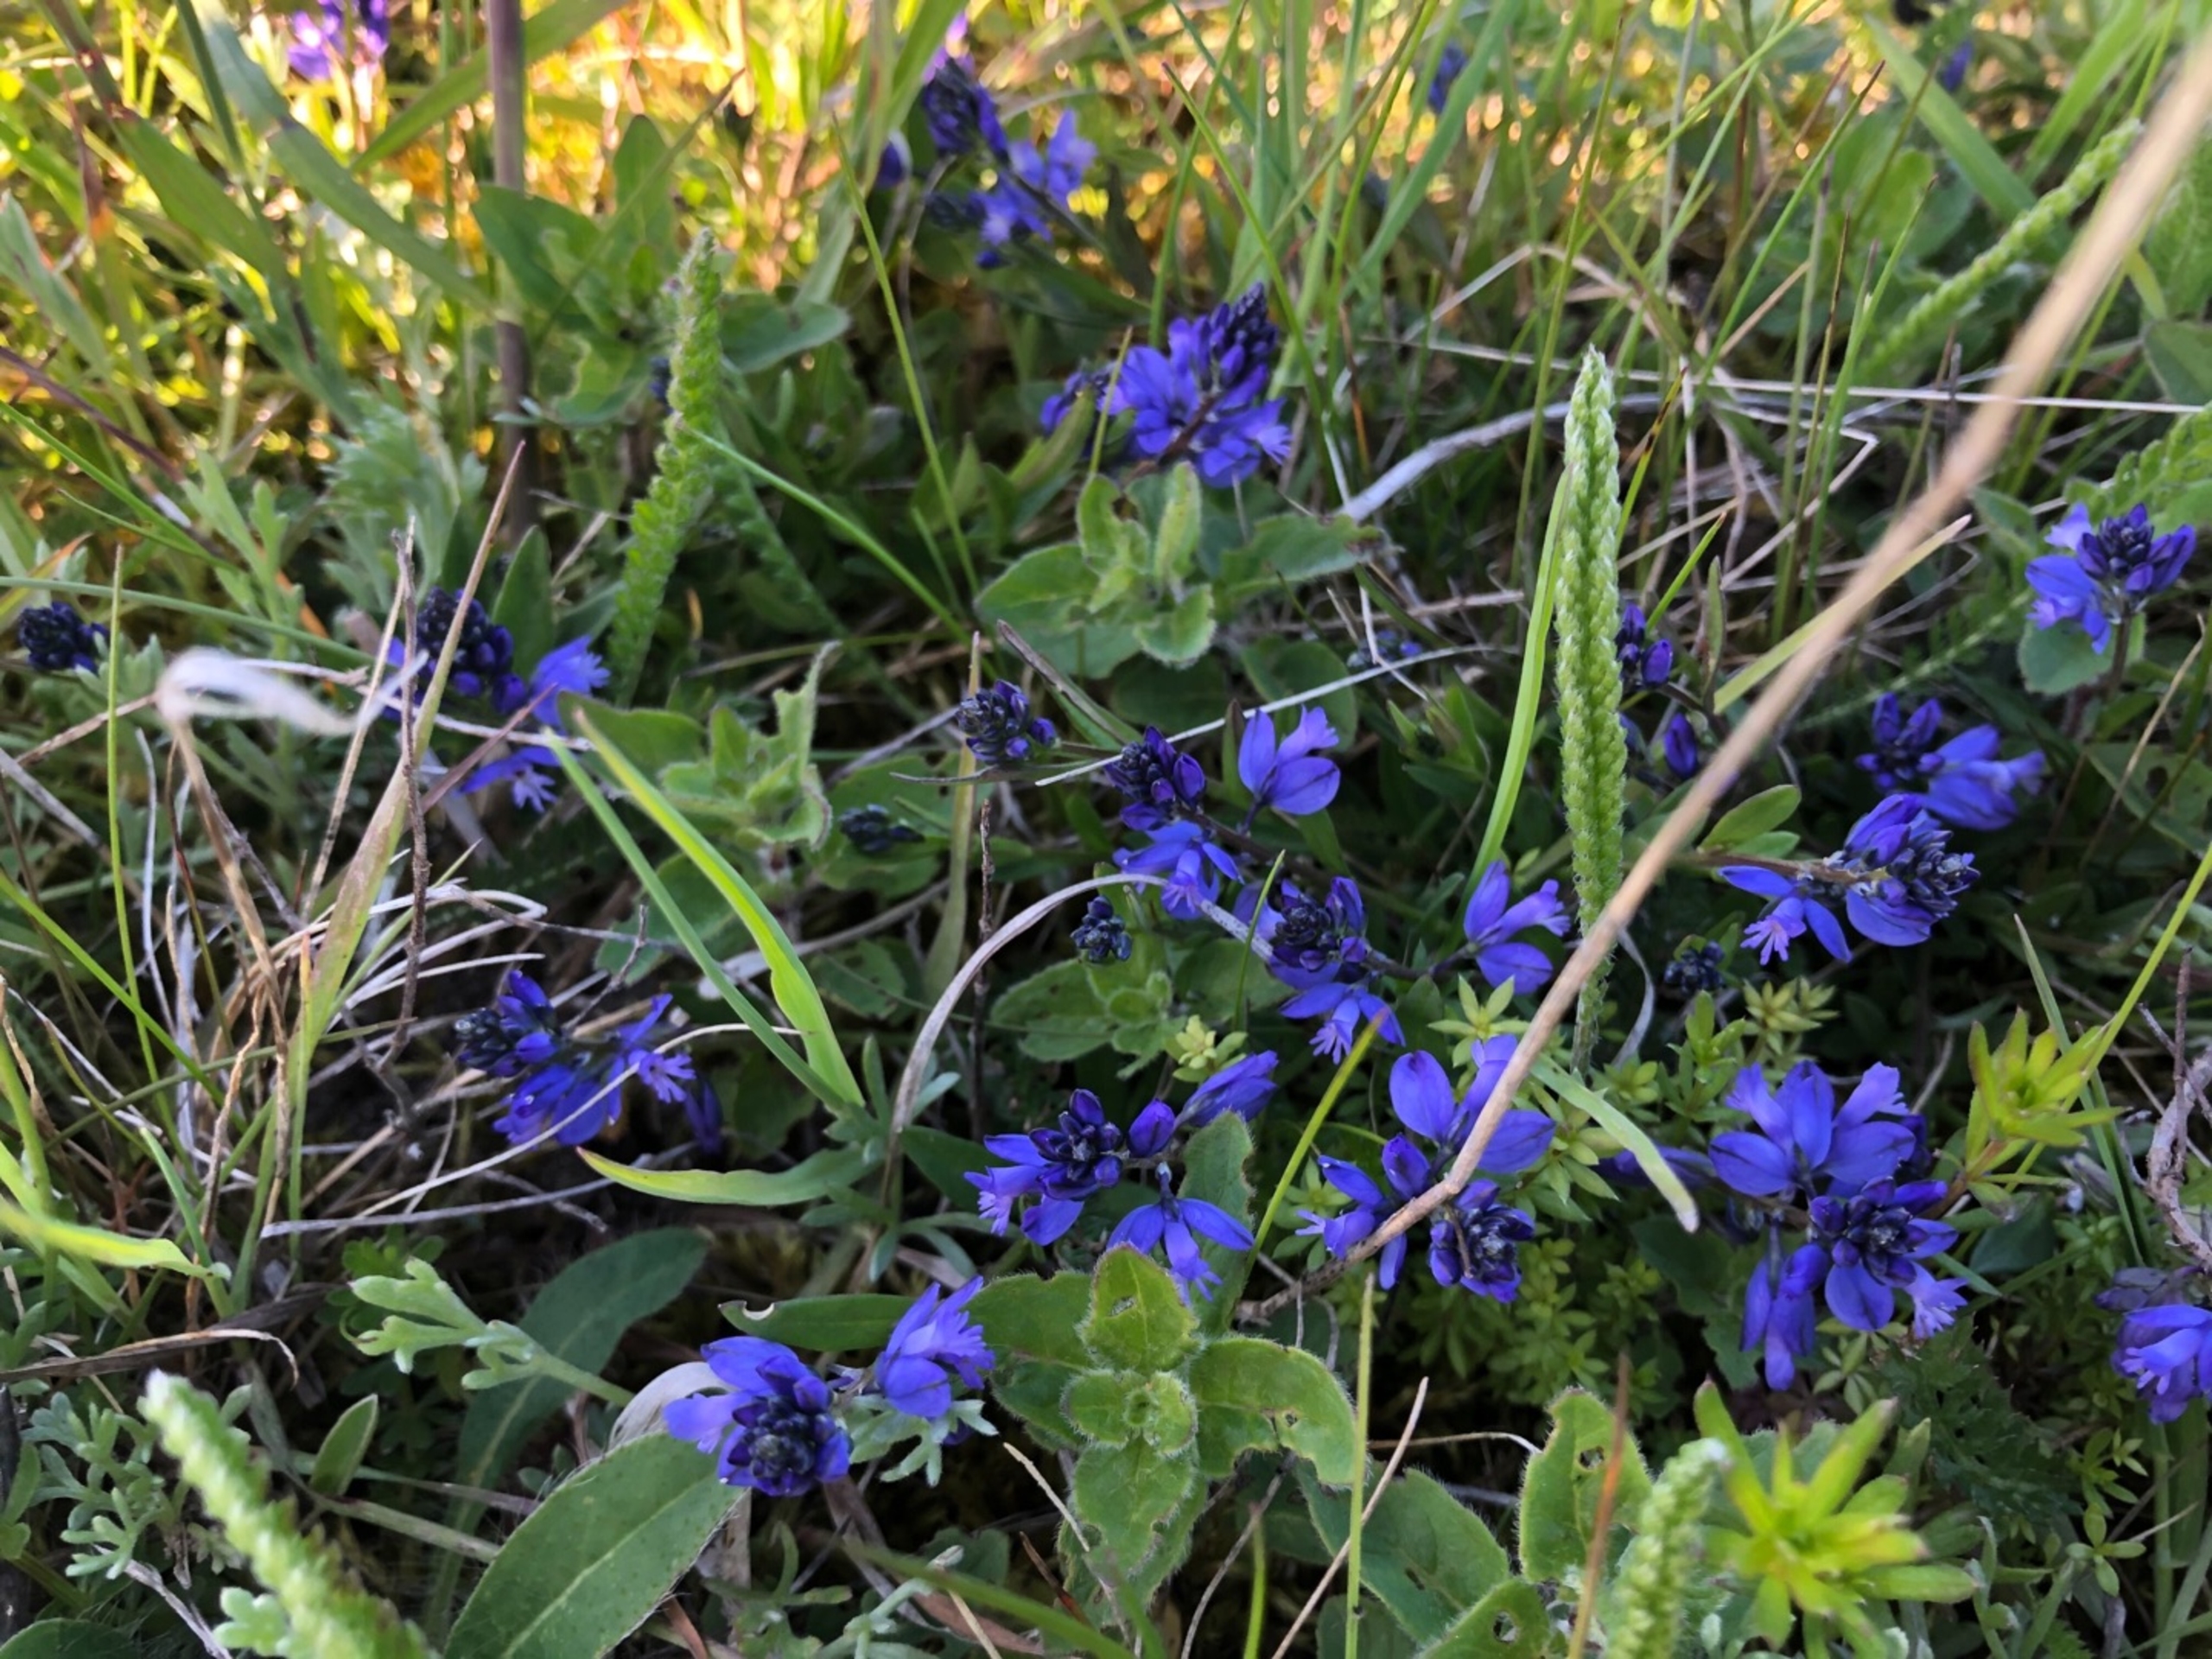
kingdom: Plantae
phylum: Tracheophyta
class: Magnoliopsida
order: Fabales
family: Polygalaceae
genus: Polygala
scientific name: Polygala
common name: Mælkeurtslægten
